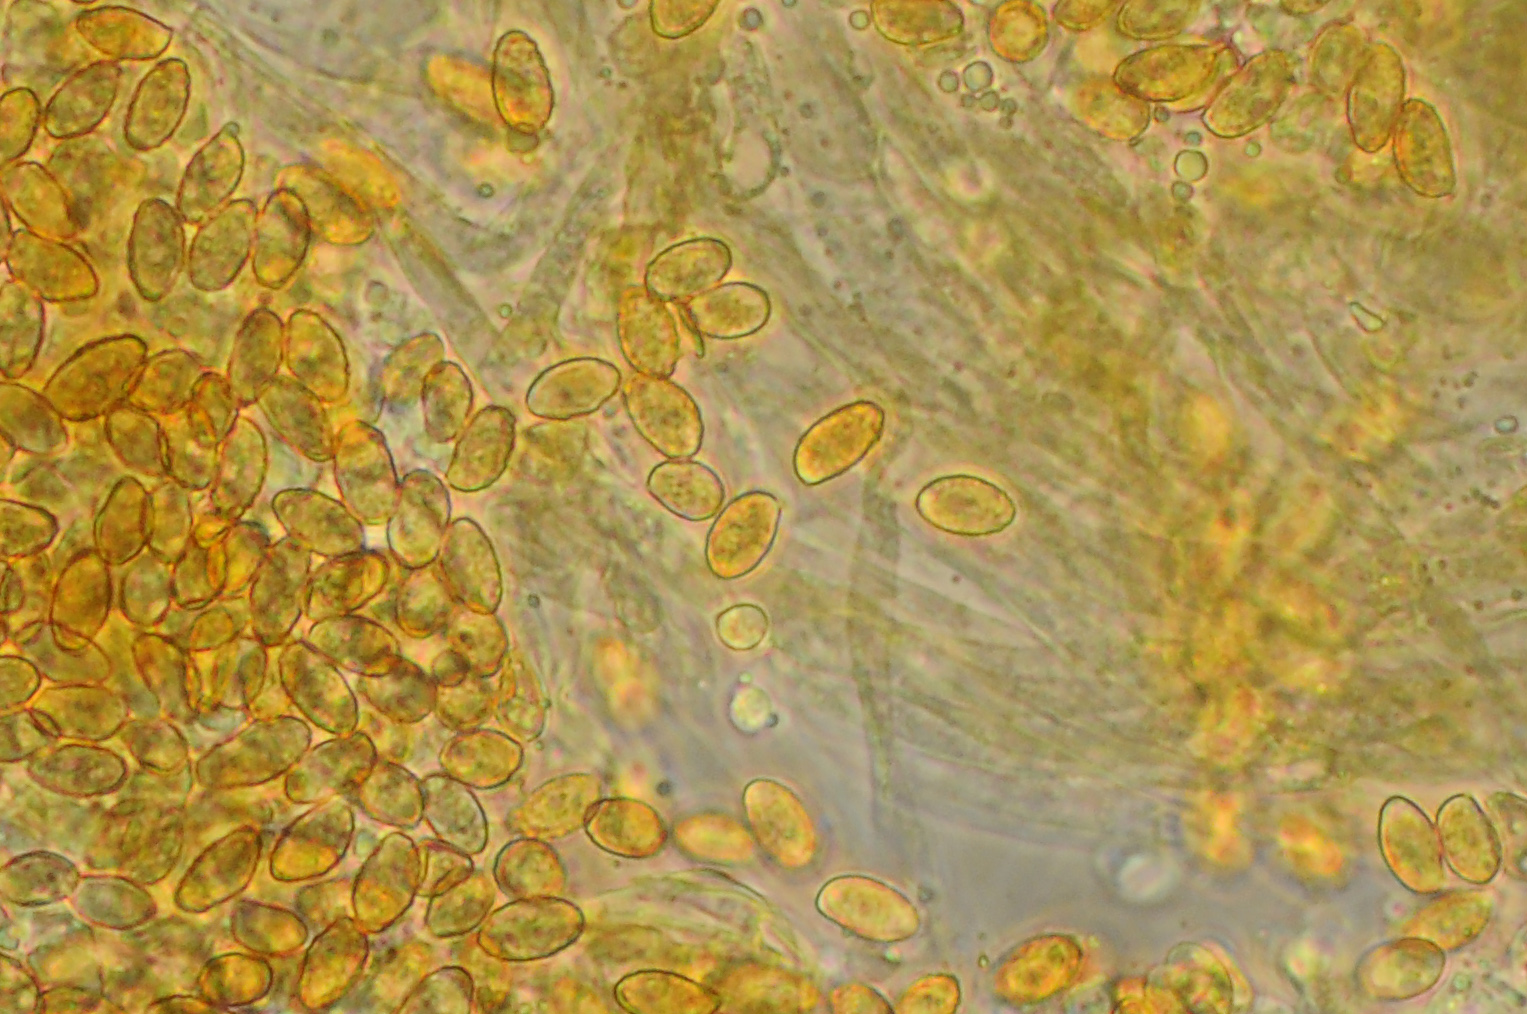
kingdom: Fungi
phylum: Basidiomycota
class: Agaricomycetes
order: Agaricales
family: Cortinariaceae
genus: Cortinarius
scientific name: Cortinarius fulvescens
